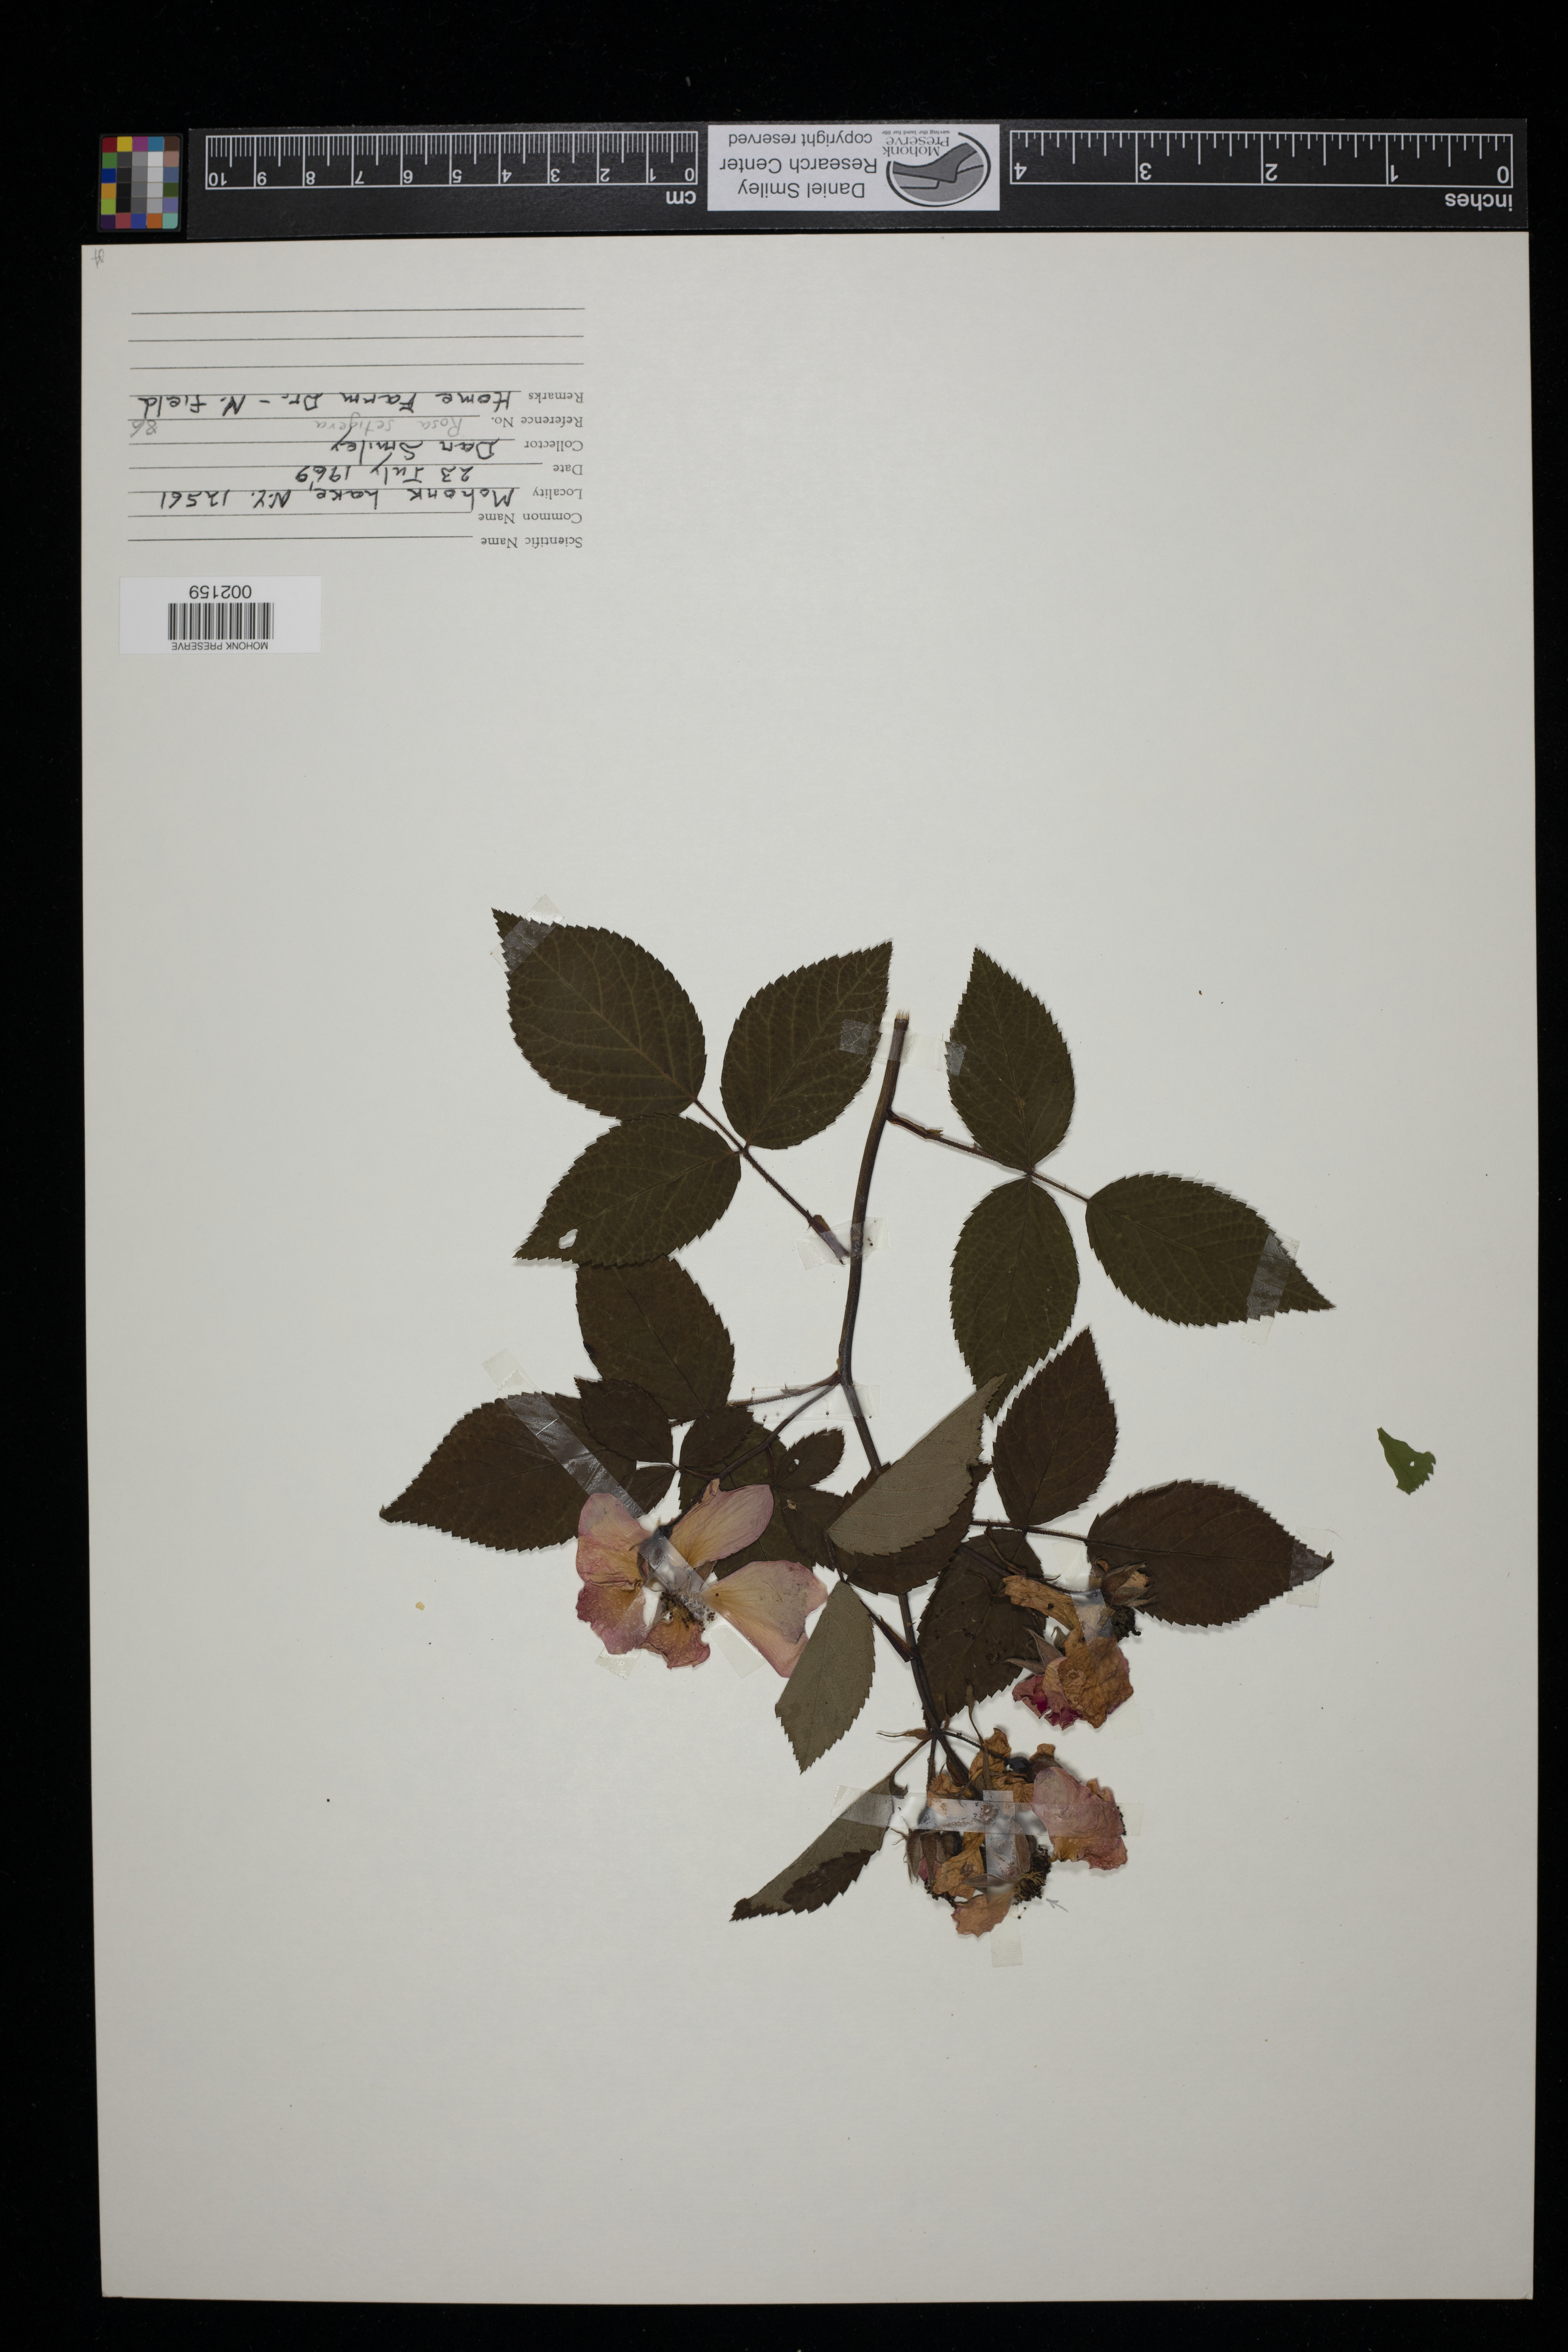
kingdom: Plantae
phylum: Tracheophyta
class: Magnoliopsida
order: Rosales
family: Rosaceae
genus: Rosa
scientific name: Rosa setigera
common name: Prairie rose
